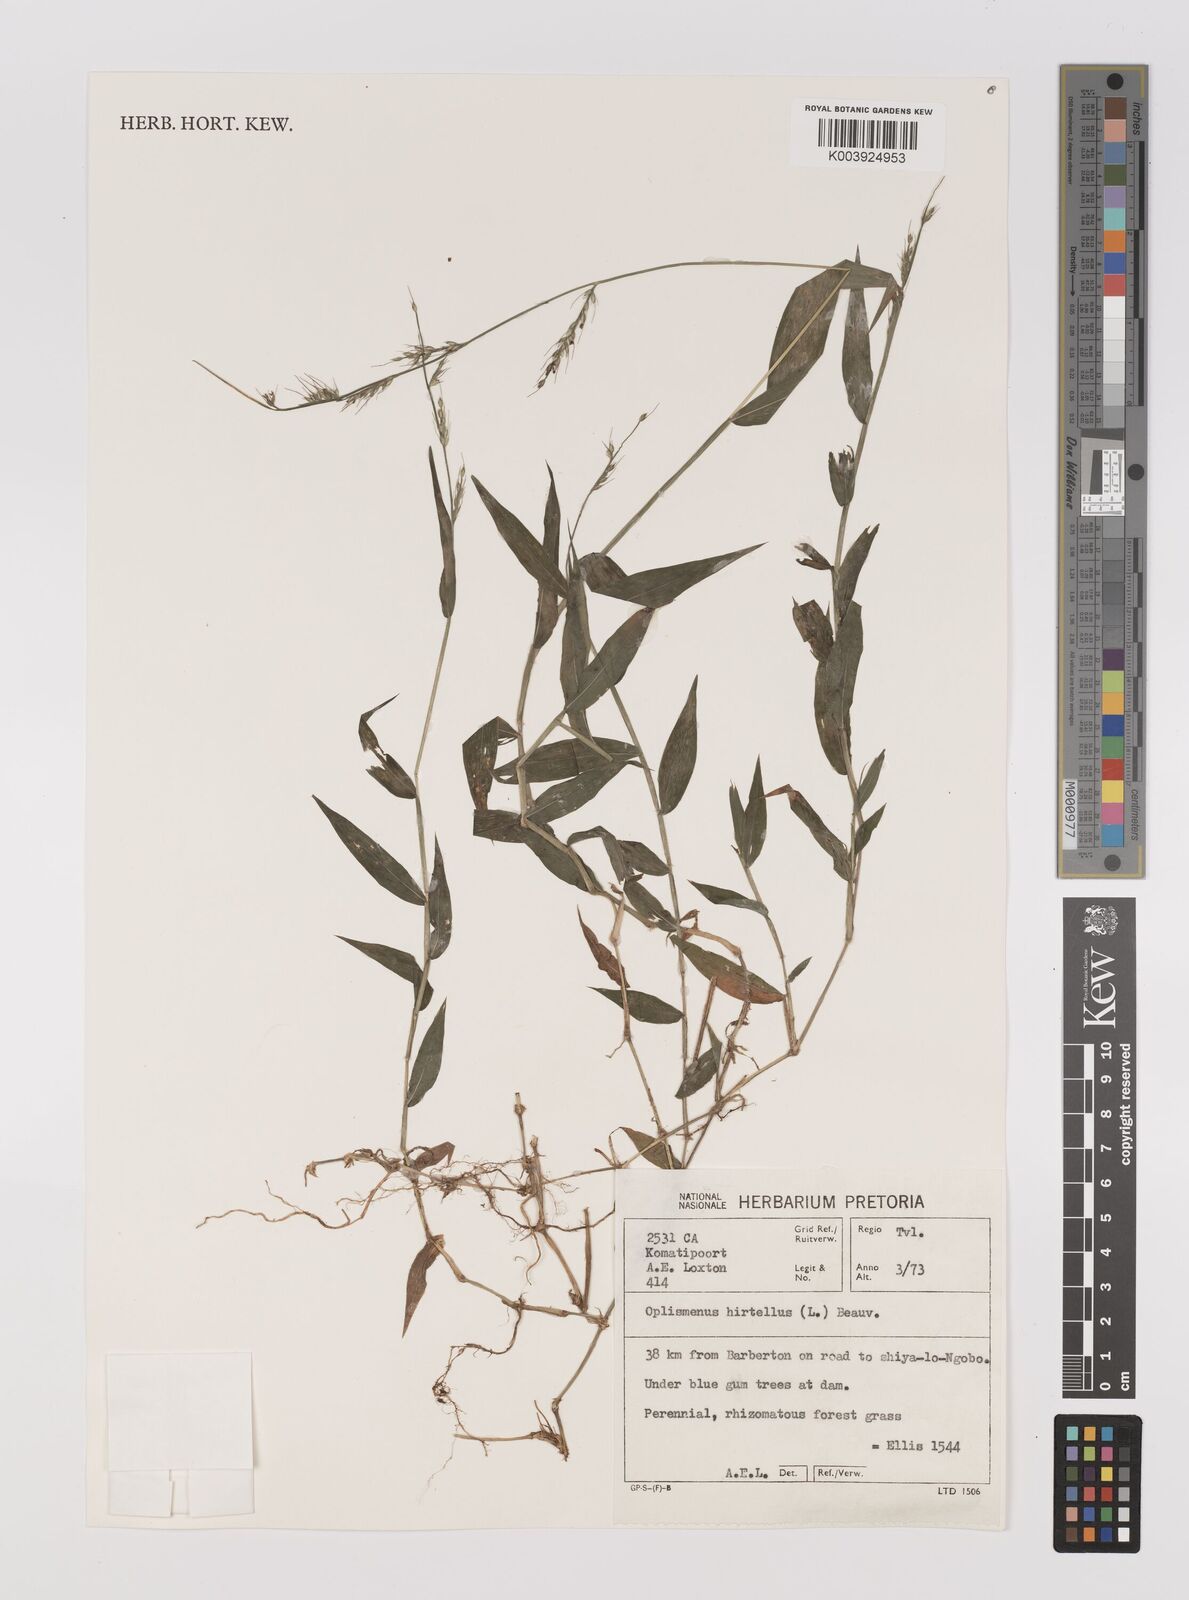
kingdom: Plantae
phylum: Tracheophyta
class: Liliopsida
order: Poales
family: Poaceae
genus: Oplismenus
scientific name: Oplismenus hirtellus
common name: Basketgrass
